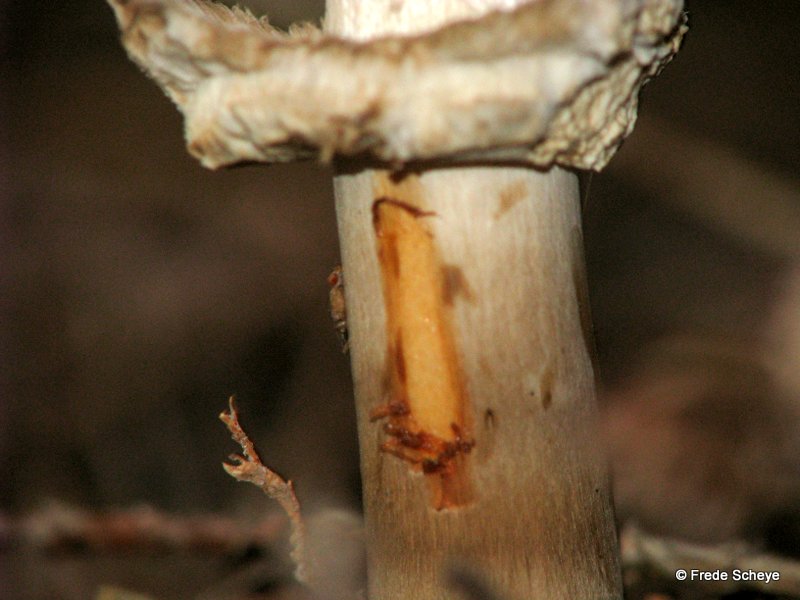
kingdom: Fungi
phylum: Basidiomycota
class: Agaricomycetes
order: Agaricales
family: Agaricaceae
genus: Chlorophyllum
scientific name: Chlorophyllum olivieri
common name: almindelig rabarberhat
